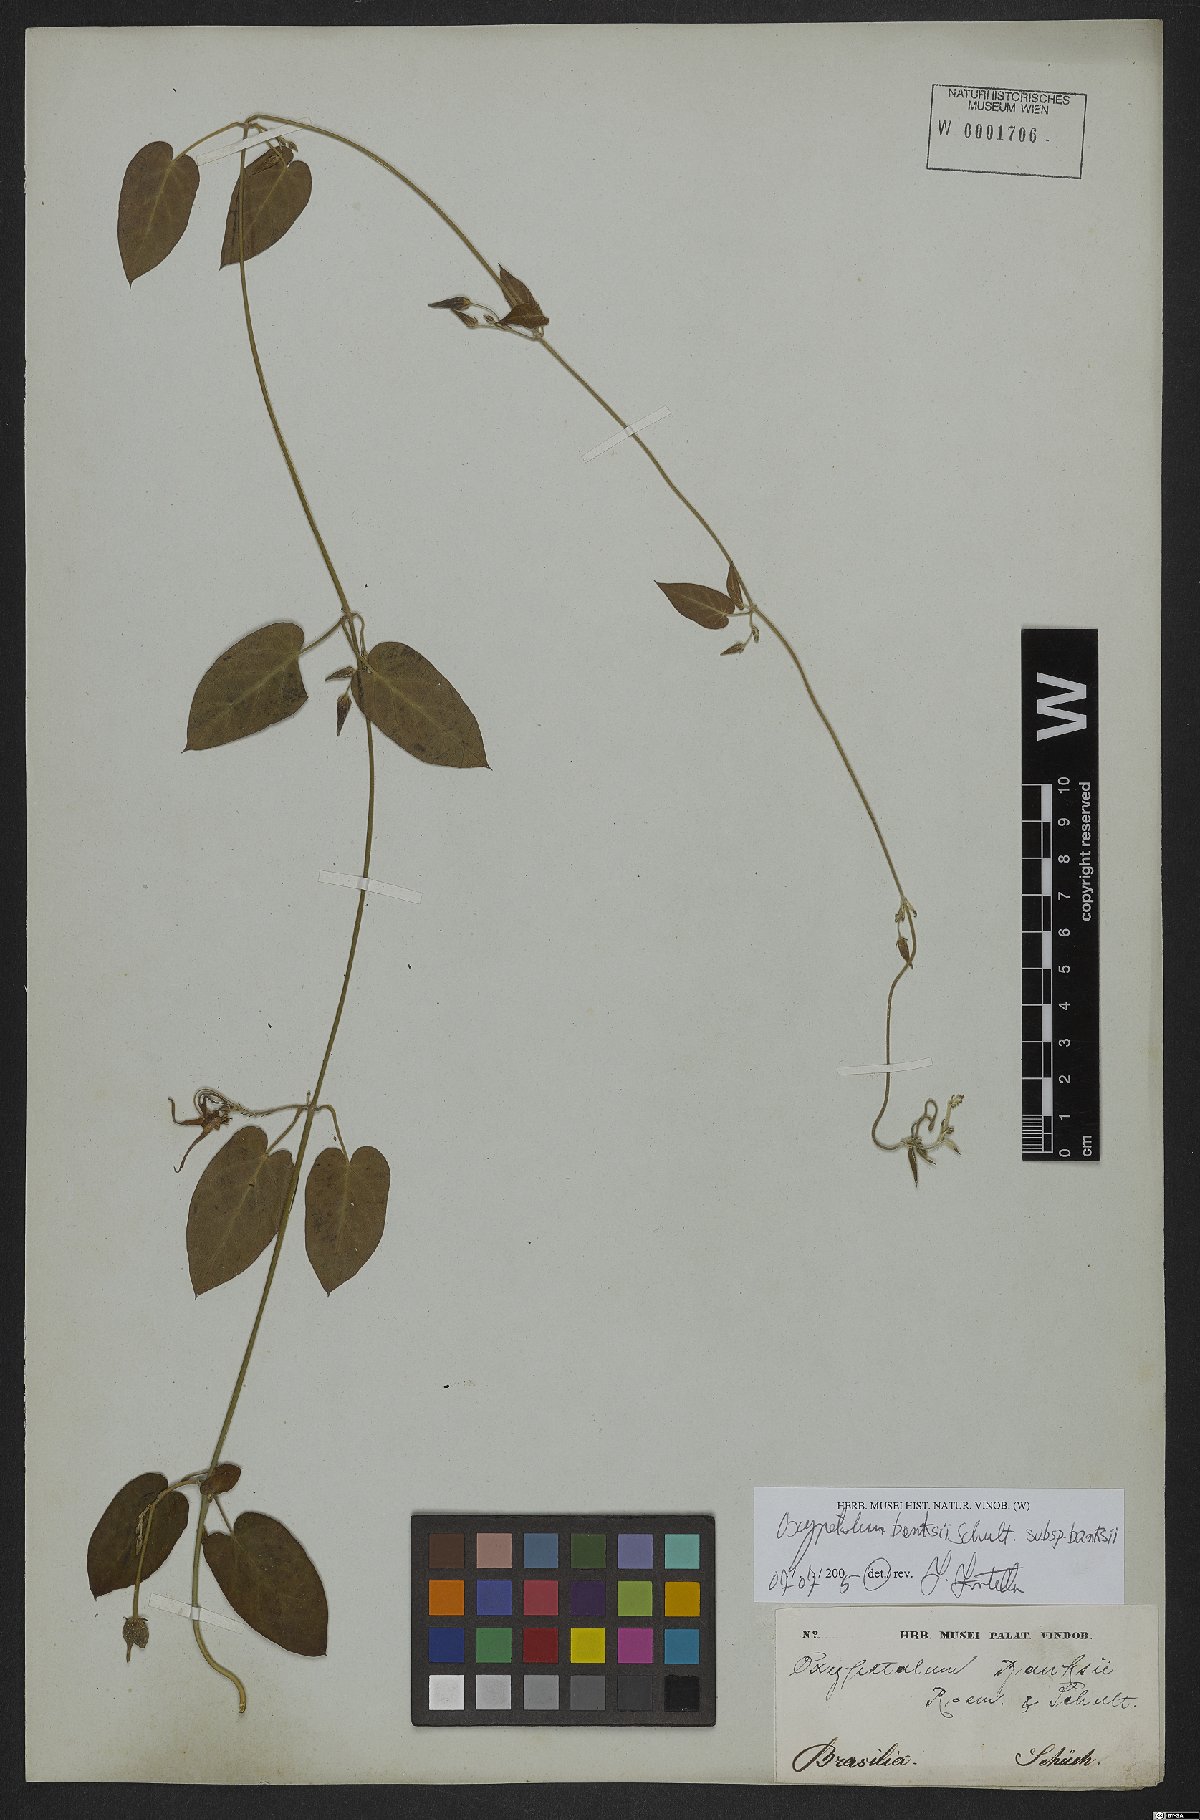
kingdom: Plantae
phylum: Tracheophyta
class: Magnoliopsida
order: Gentianales
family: Apocynaceae
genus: Oxypetalum
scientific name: Oxypetalum banksii
